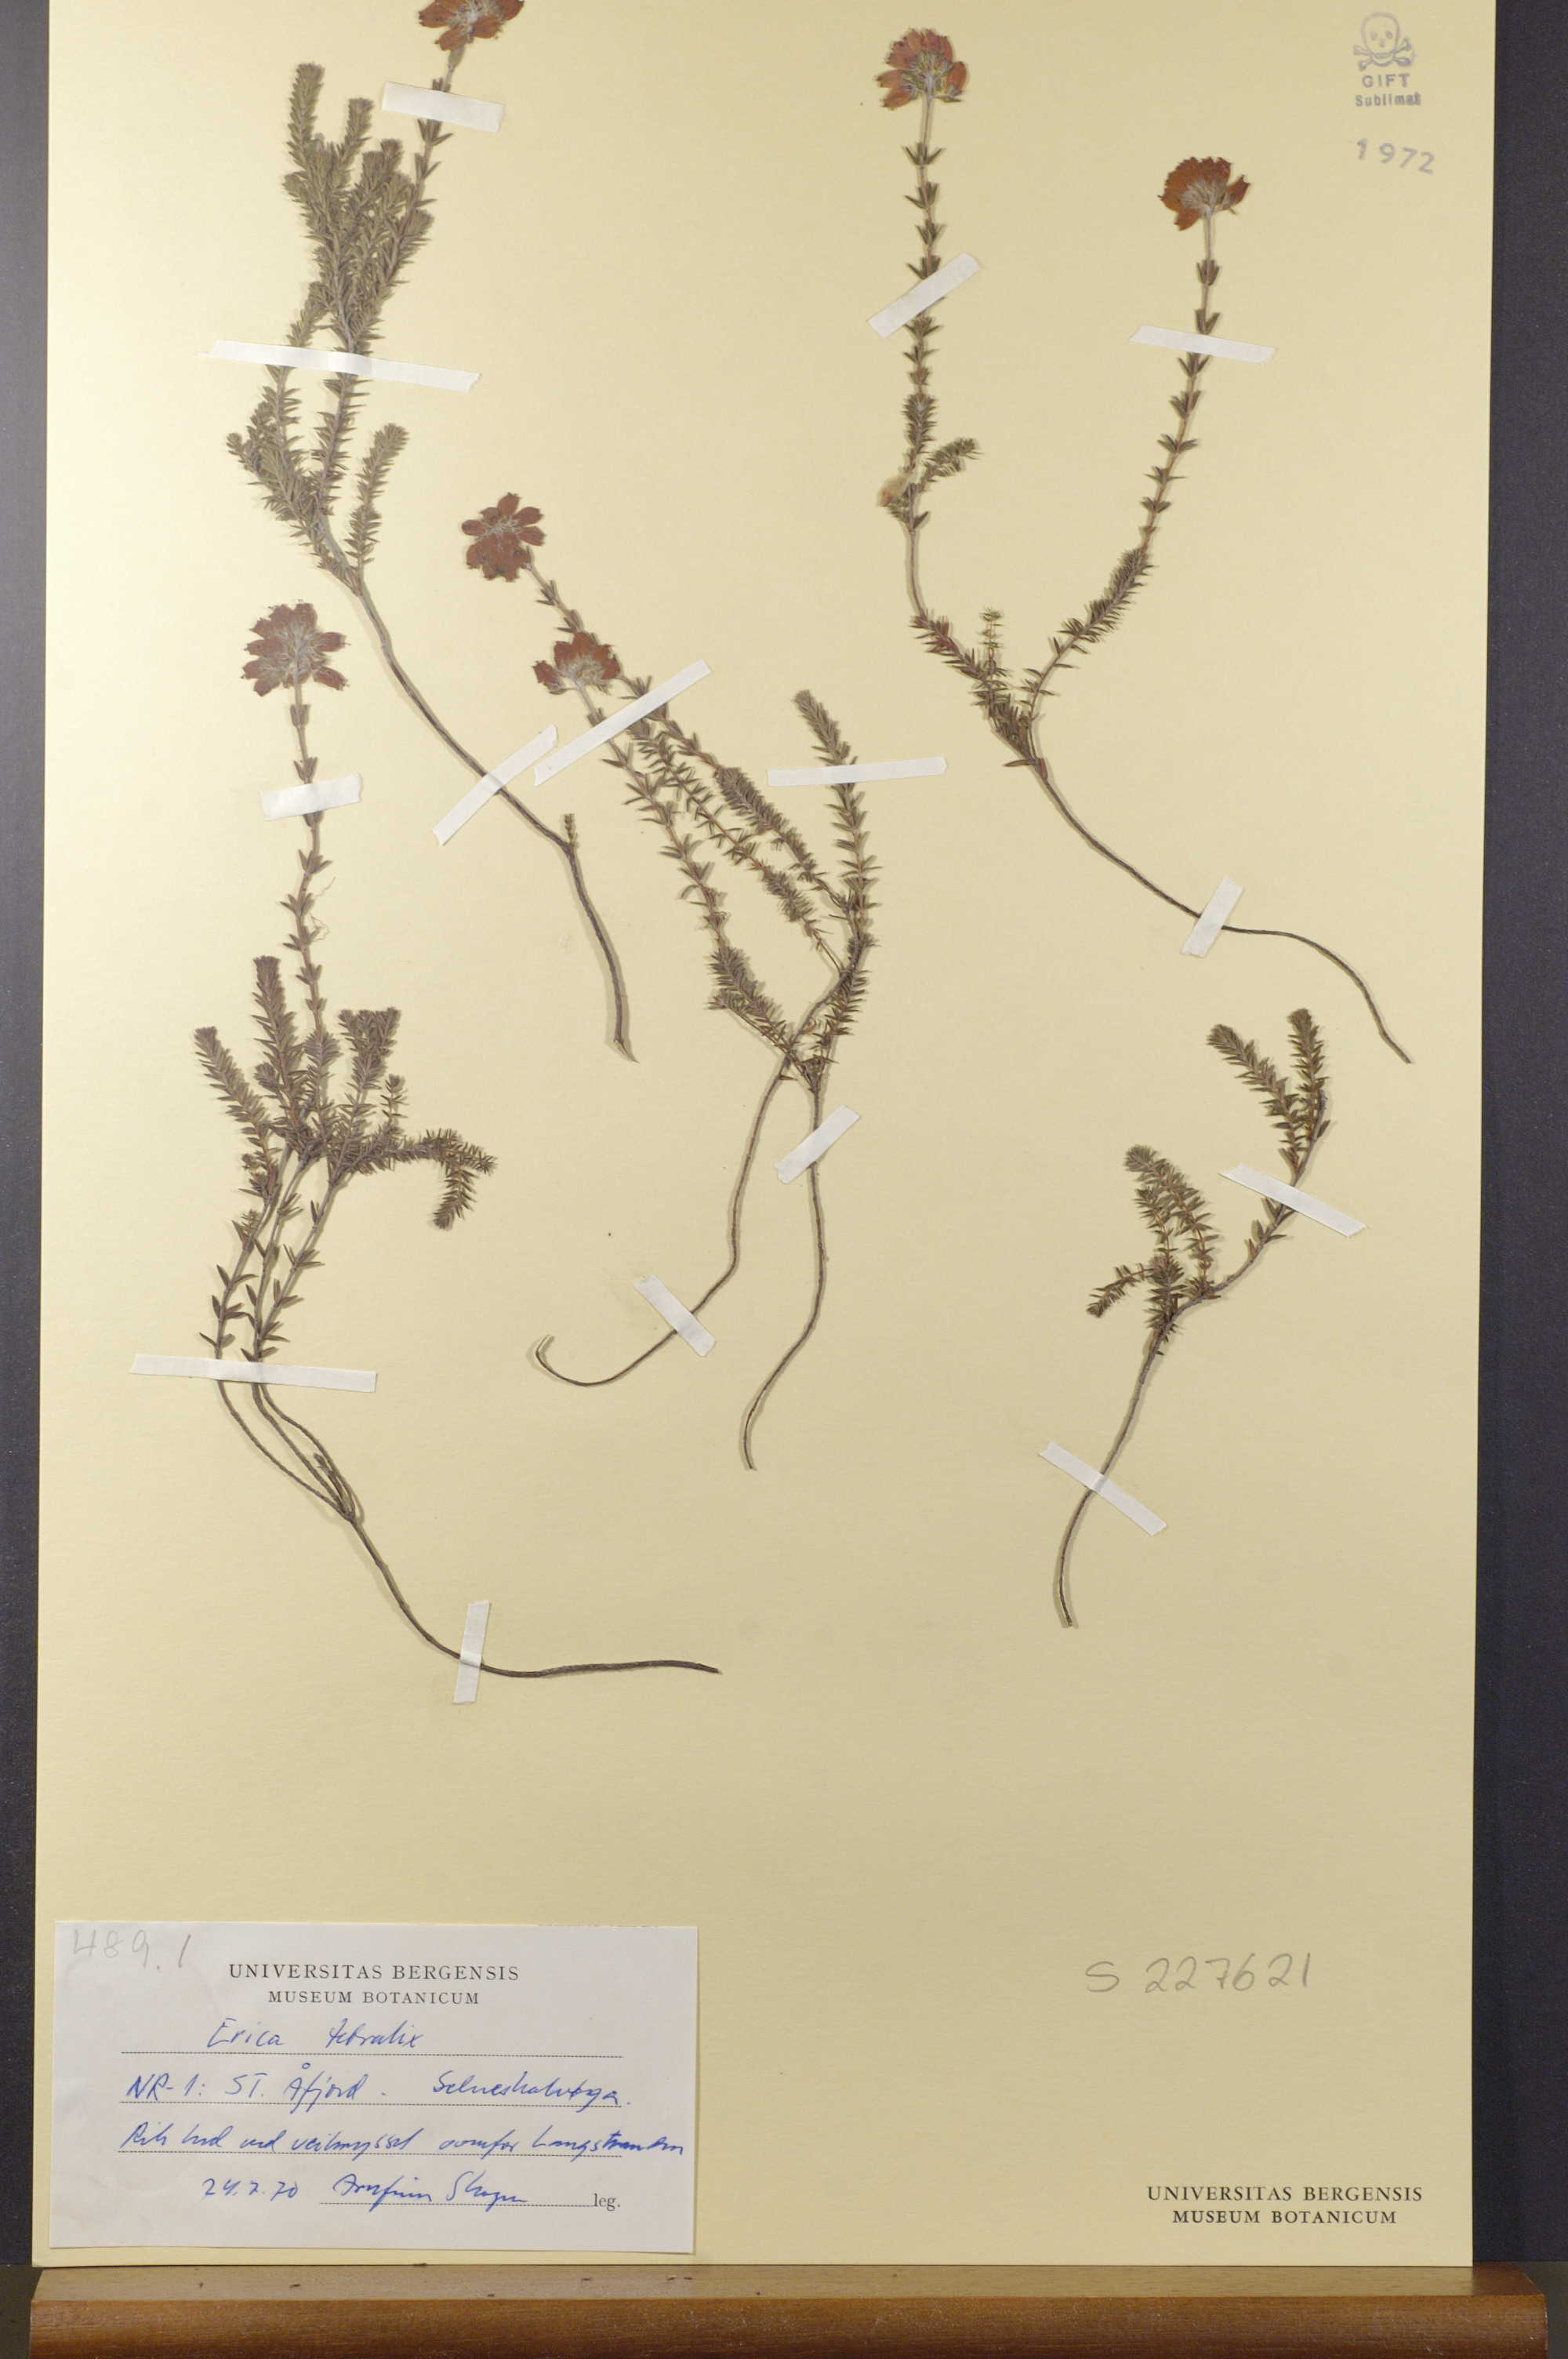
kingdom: Plantae
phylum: Tracheophyta
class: Magnoliopsida
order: Ericales
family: Ericaceae
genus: Erica
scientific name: Erica tetralix
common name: Cross-leaved heath
